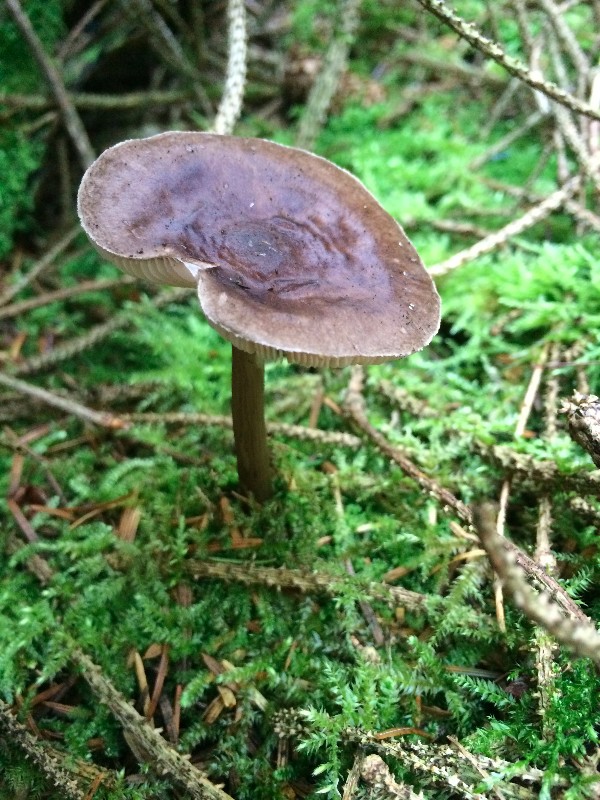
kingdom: Fungi
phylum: Basidiomycota
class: Agaricomycetes
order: Agaricales
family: Pluteaceae
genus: Pluteus
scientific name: Pluteus cervinus
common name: sodfarvet skærmhat
